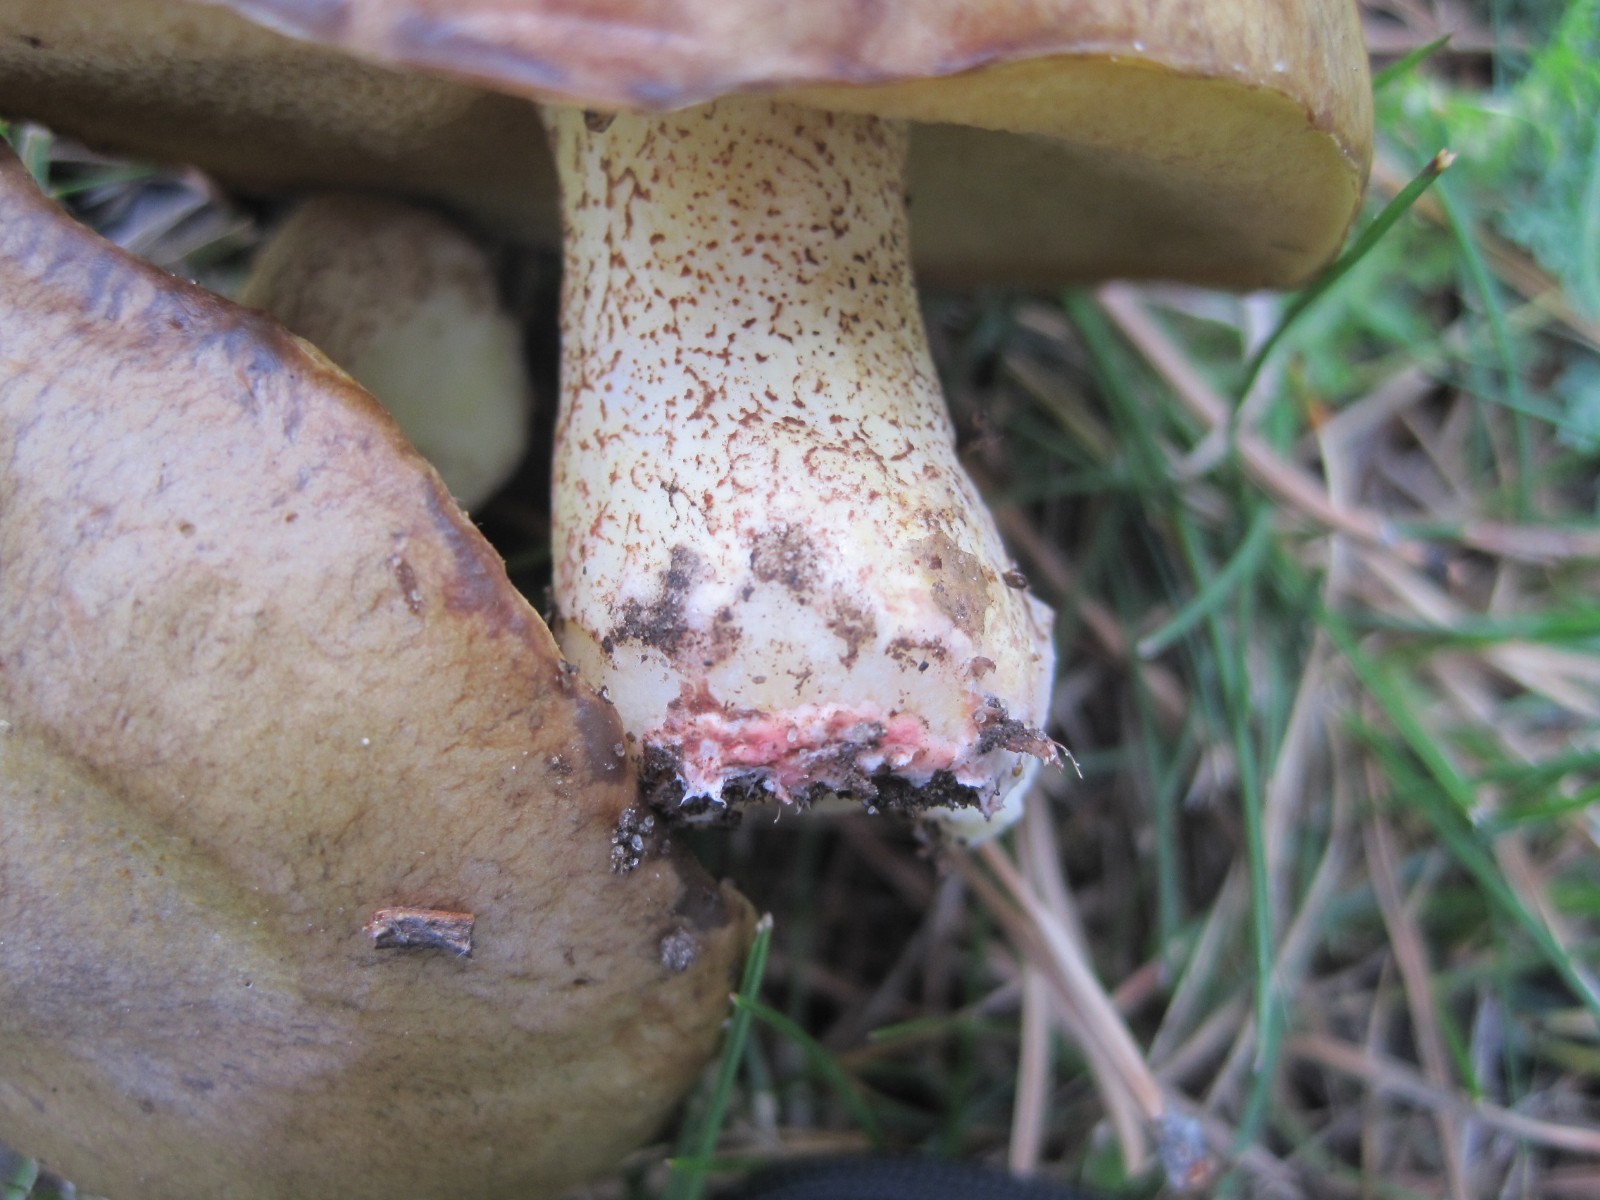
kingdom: Fungi
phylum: Basidiomycota
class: Agaricomycetes
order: Boletales
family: Suillaceae
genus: Suillus
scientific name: Suillus collinitus
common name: rosafodet slimrørhat
